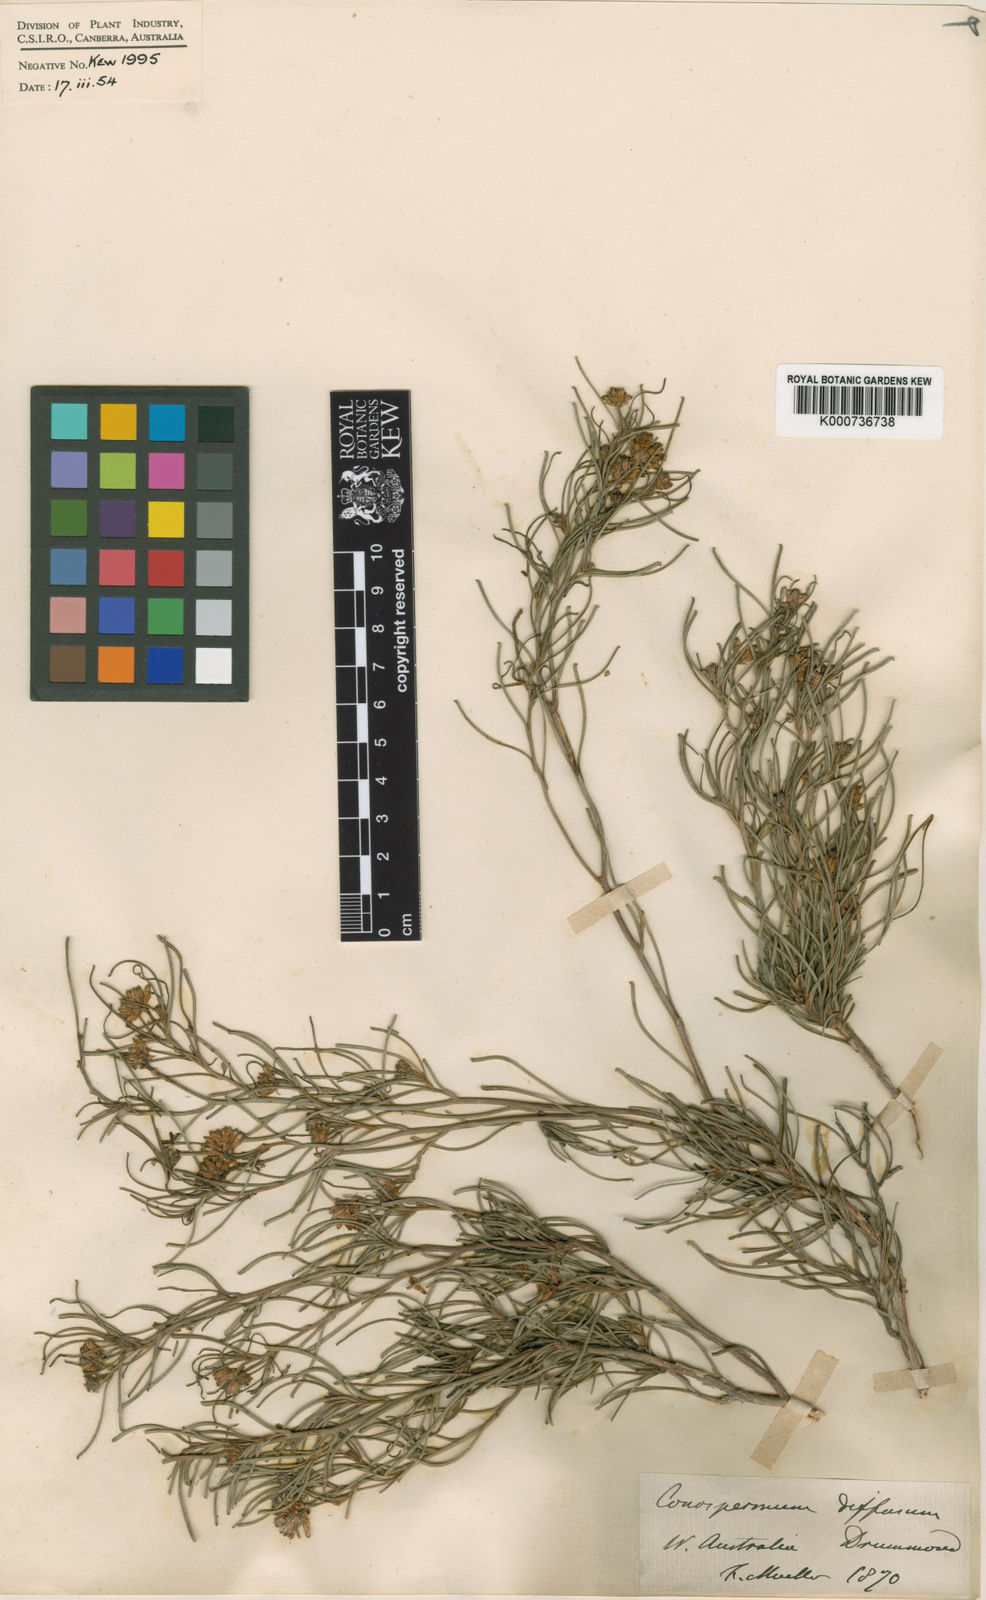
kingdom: Plantae
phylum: Tracheophyta
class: Magnoliopsida
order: Proteales
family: Proteaceae
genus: Conospermum
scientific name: Conospermum nervosum
